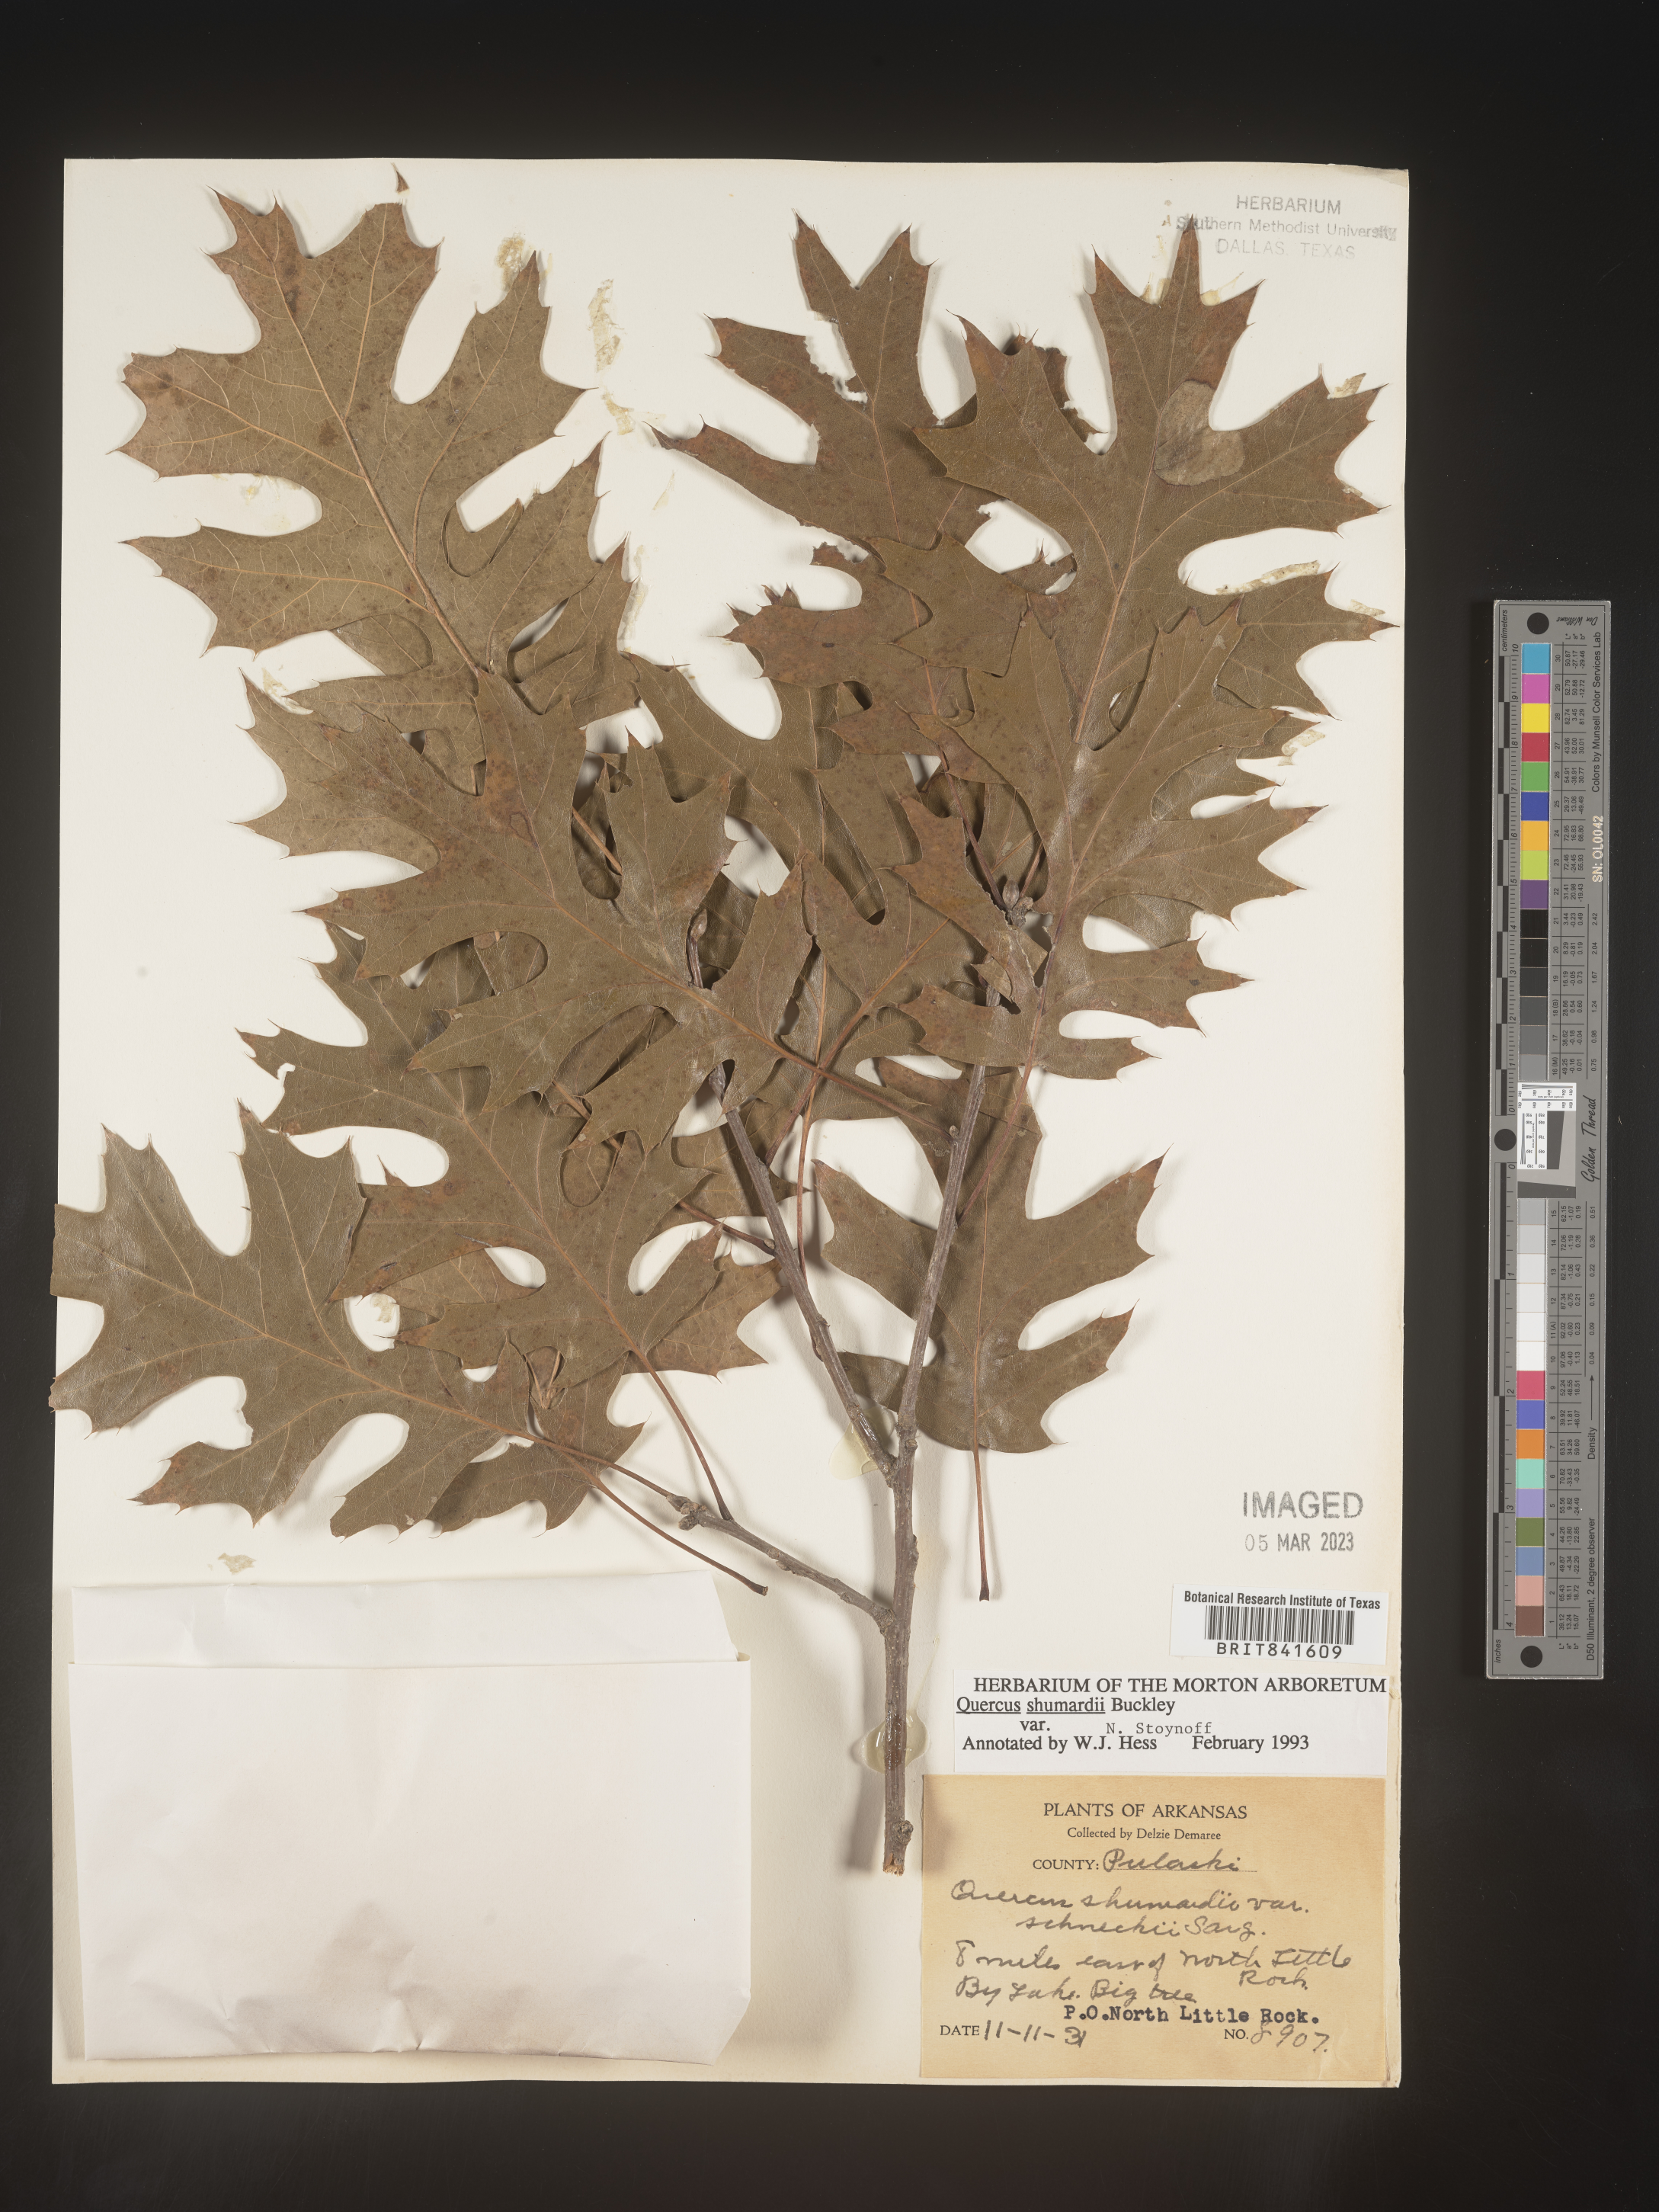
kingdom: Plantae
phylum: Tracheophyta
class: Magnoliopsida
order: Fagales
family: Fagaceae
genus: Quercus
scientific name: Quercus shumardii
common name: Shumard oak
